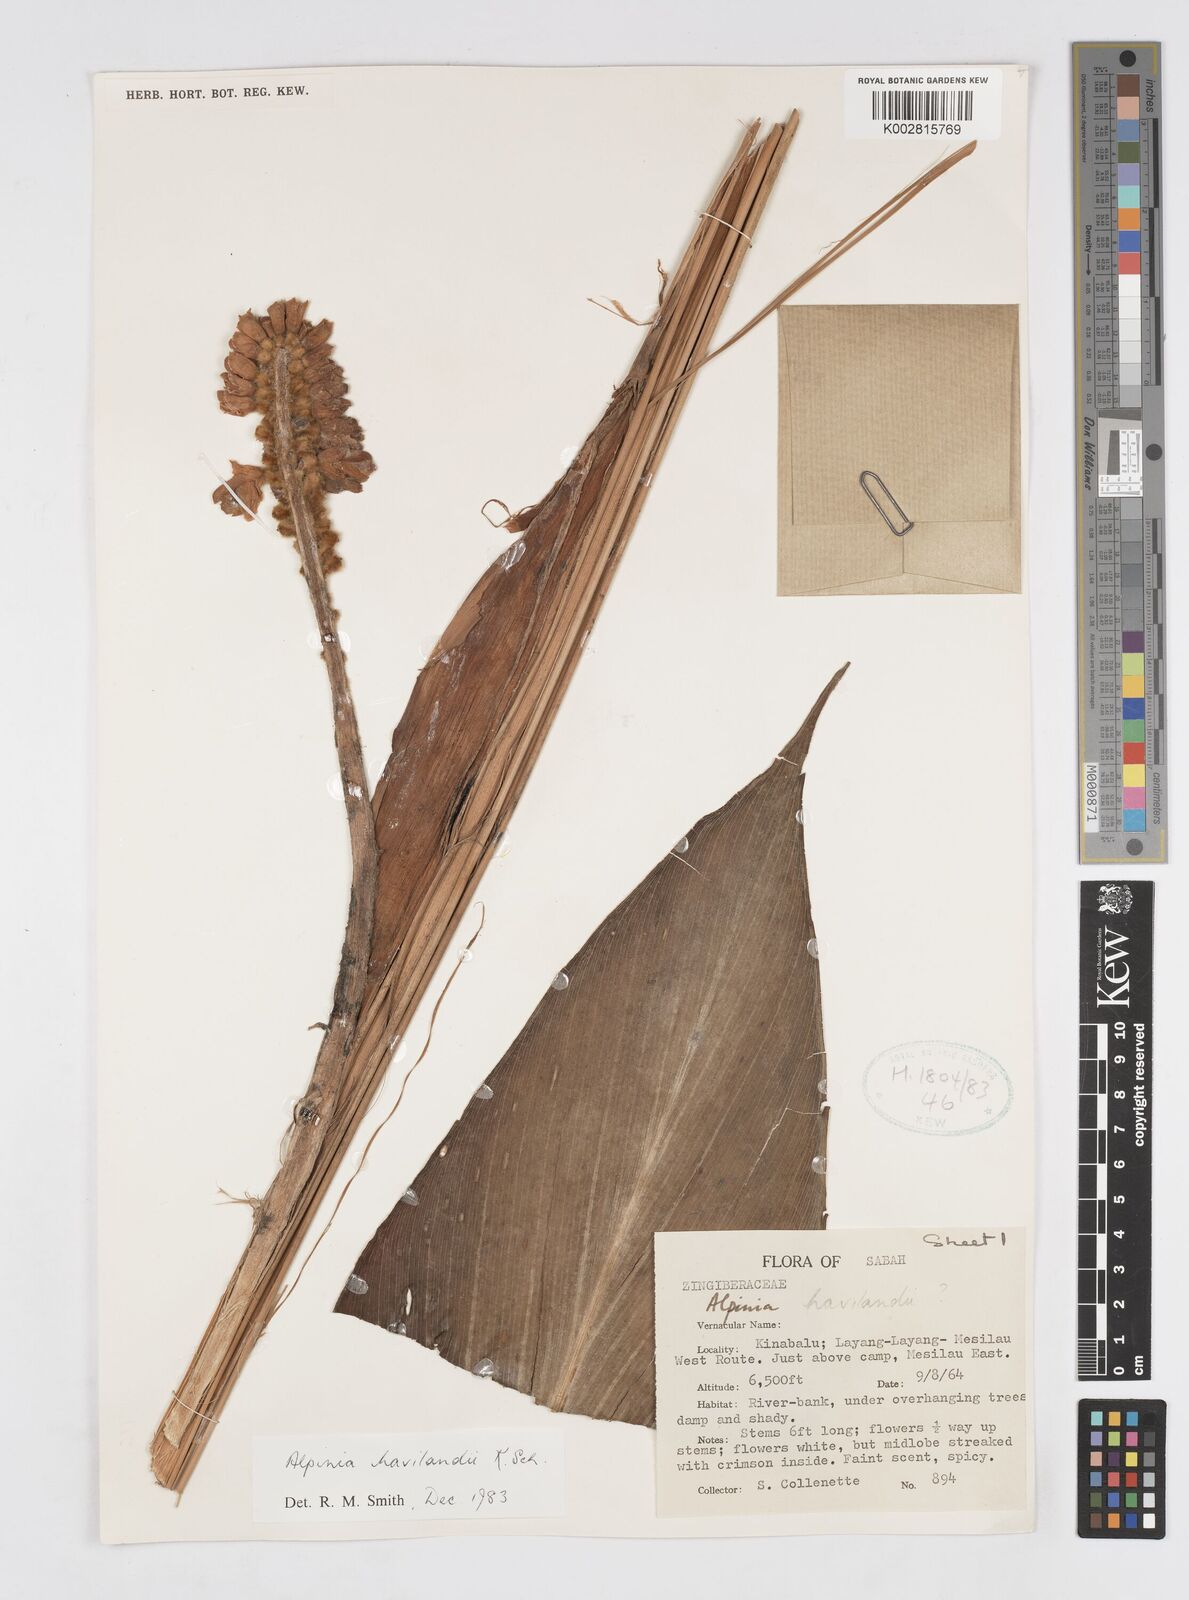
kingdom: Plantae
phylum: Tracheophyta
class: Liliopsida
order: Zingiberales
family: Zingiberaceae
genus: Alpinia
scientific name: Alpinia havilandii
